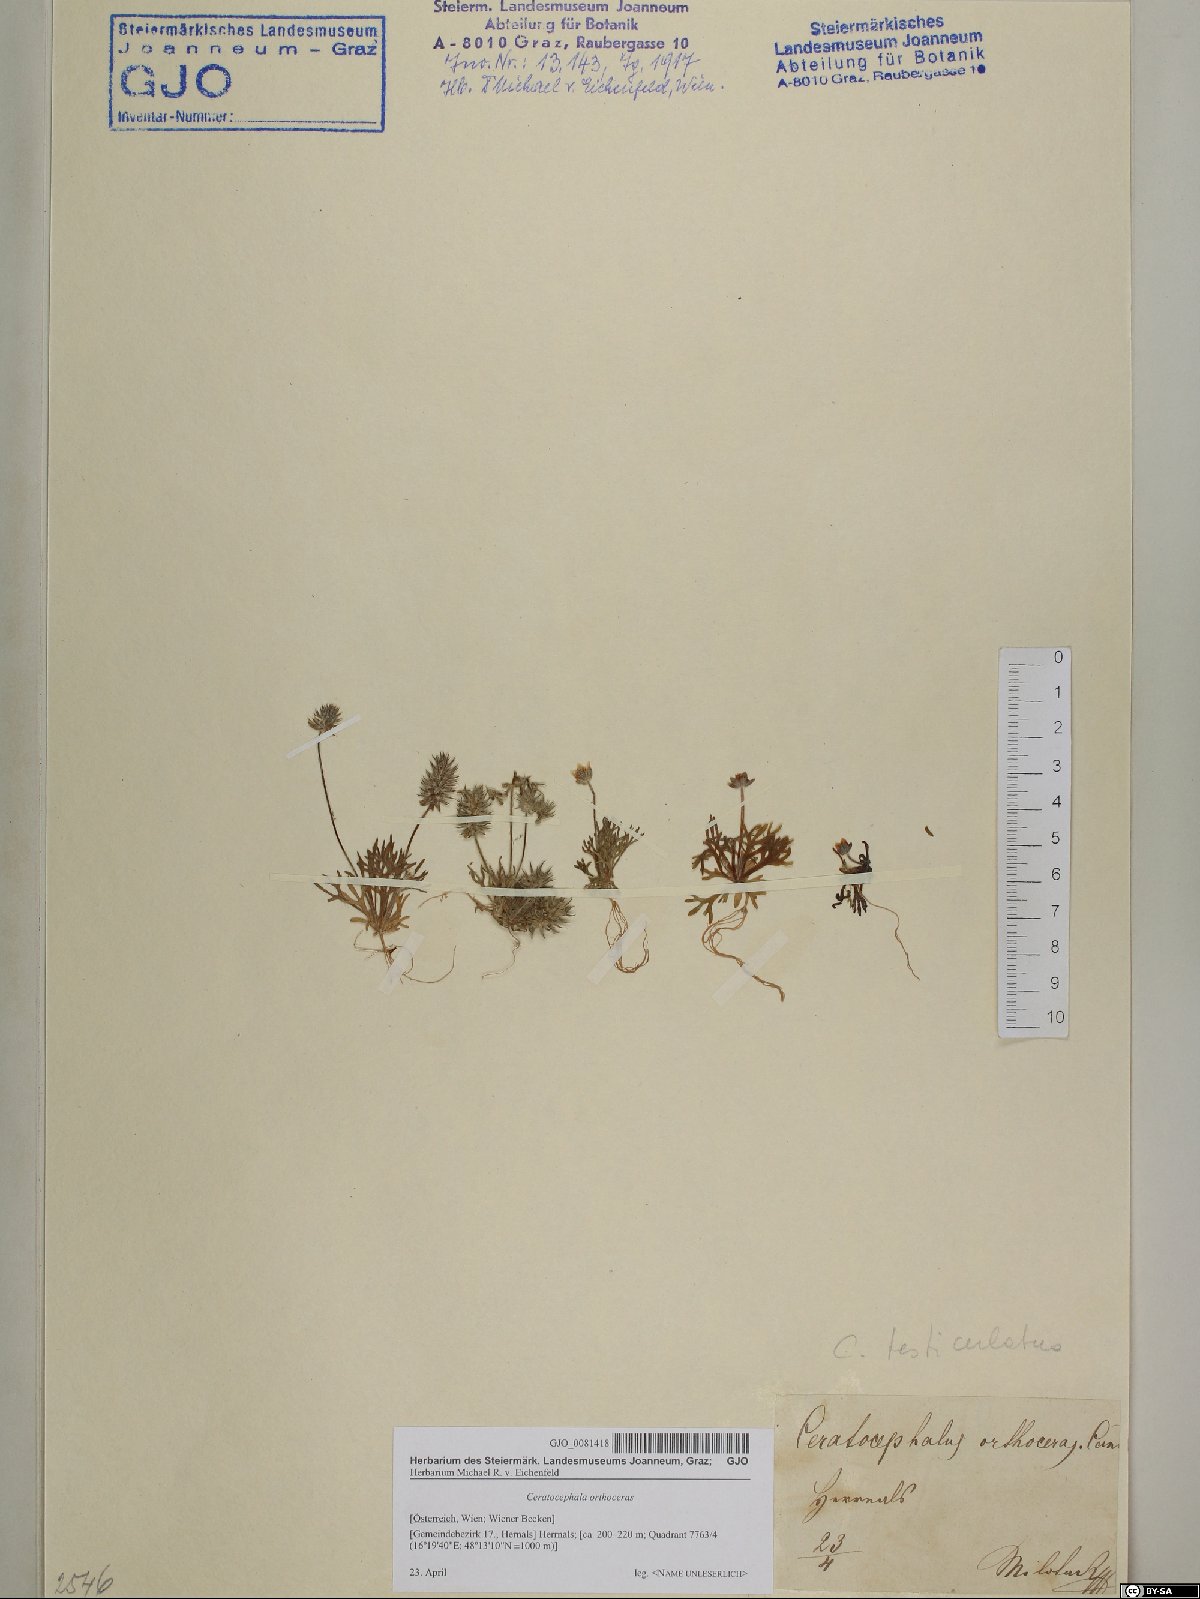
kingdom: Plantae
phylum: Tracheophyta
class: Magnoliopsida
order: Ranunculales
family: Ranunculaceae
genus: Ceratocephala
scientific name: Ceratocephala orthoceras
